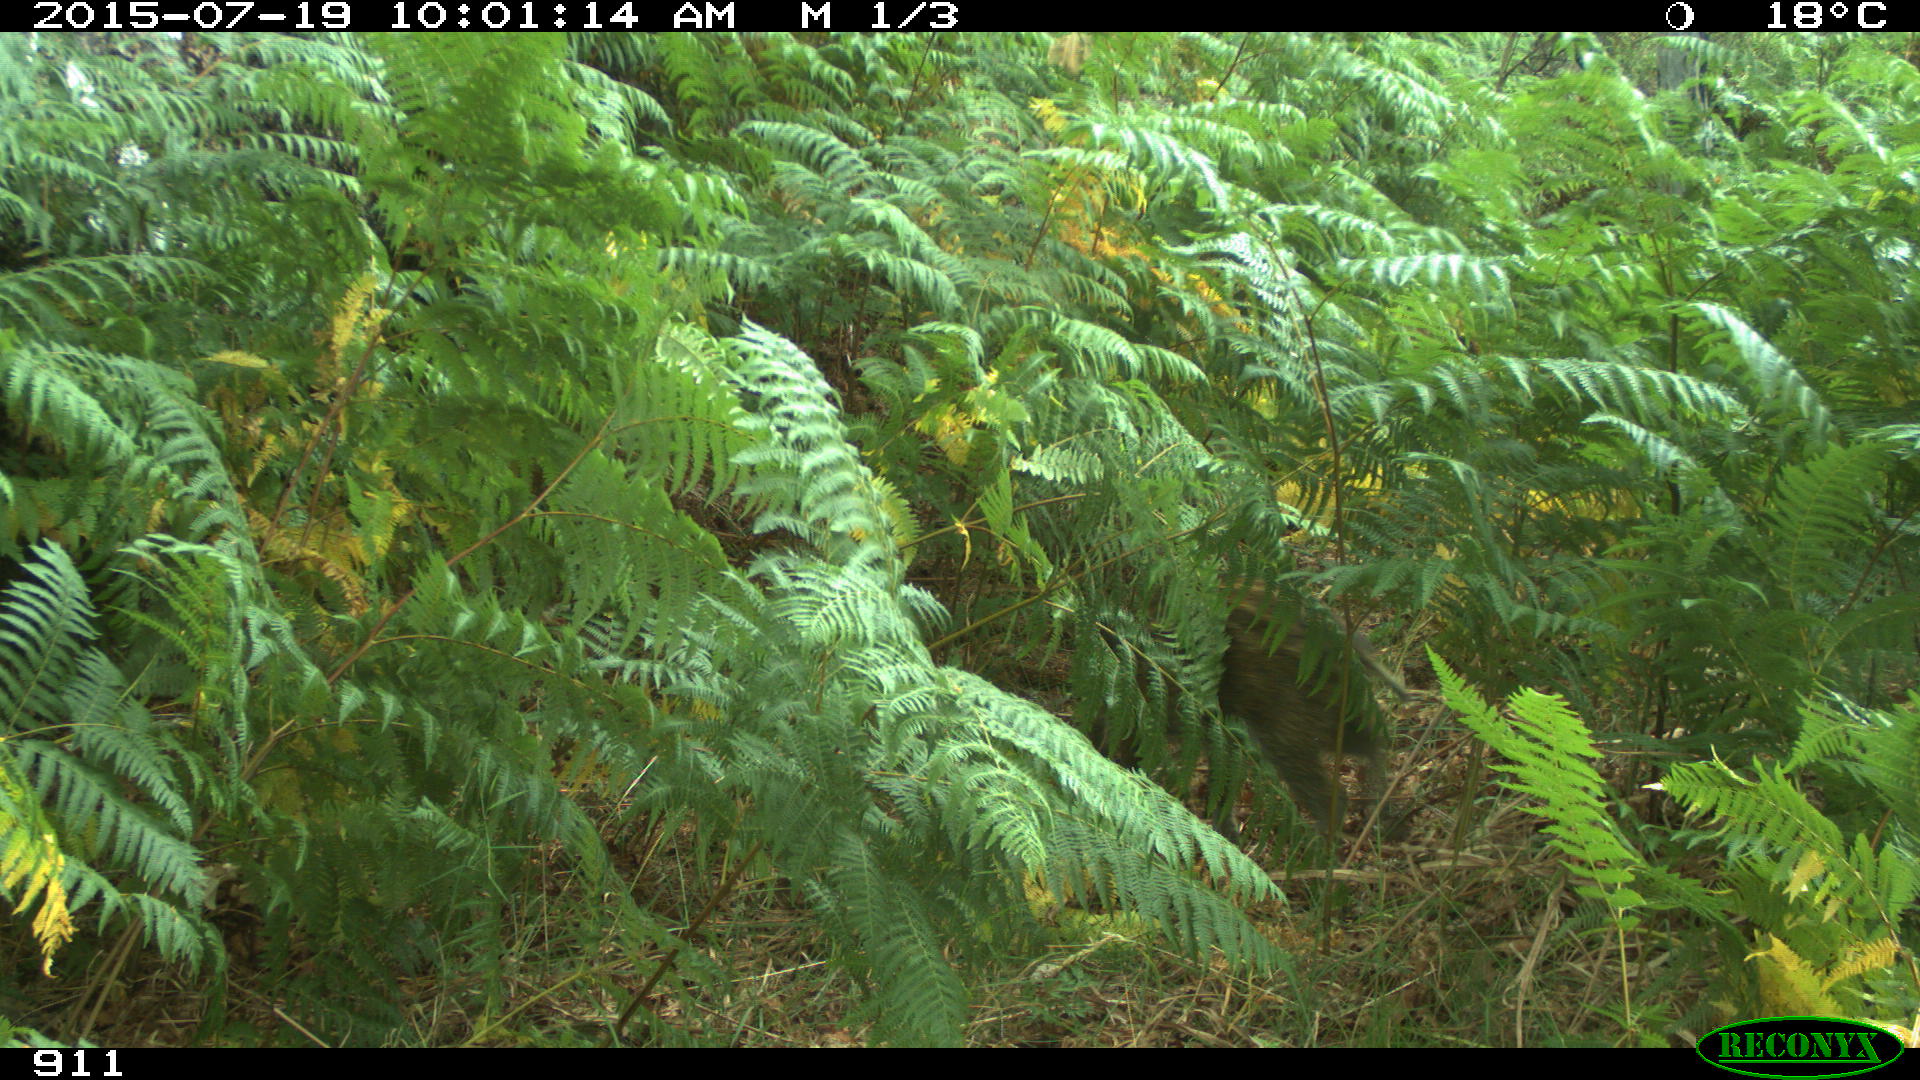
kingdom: Animalia
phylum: Chordata
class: Mammalia
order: Artiodactyla
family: Suidae
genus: Sus
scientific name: Sus scrofa
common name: Wild boar
